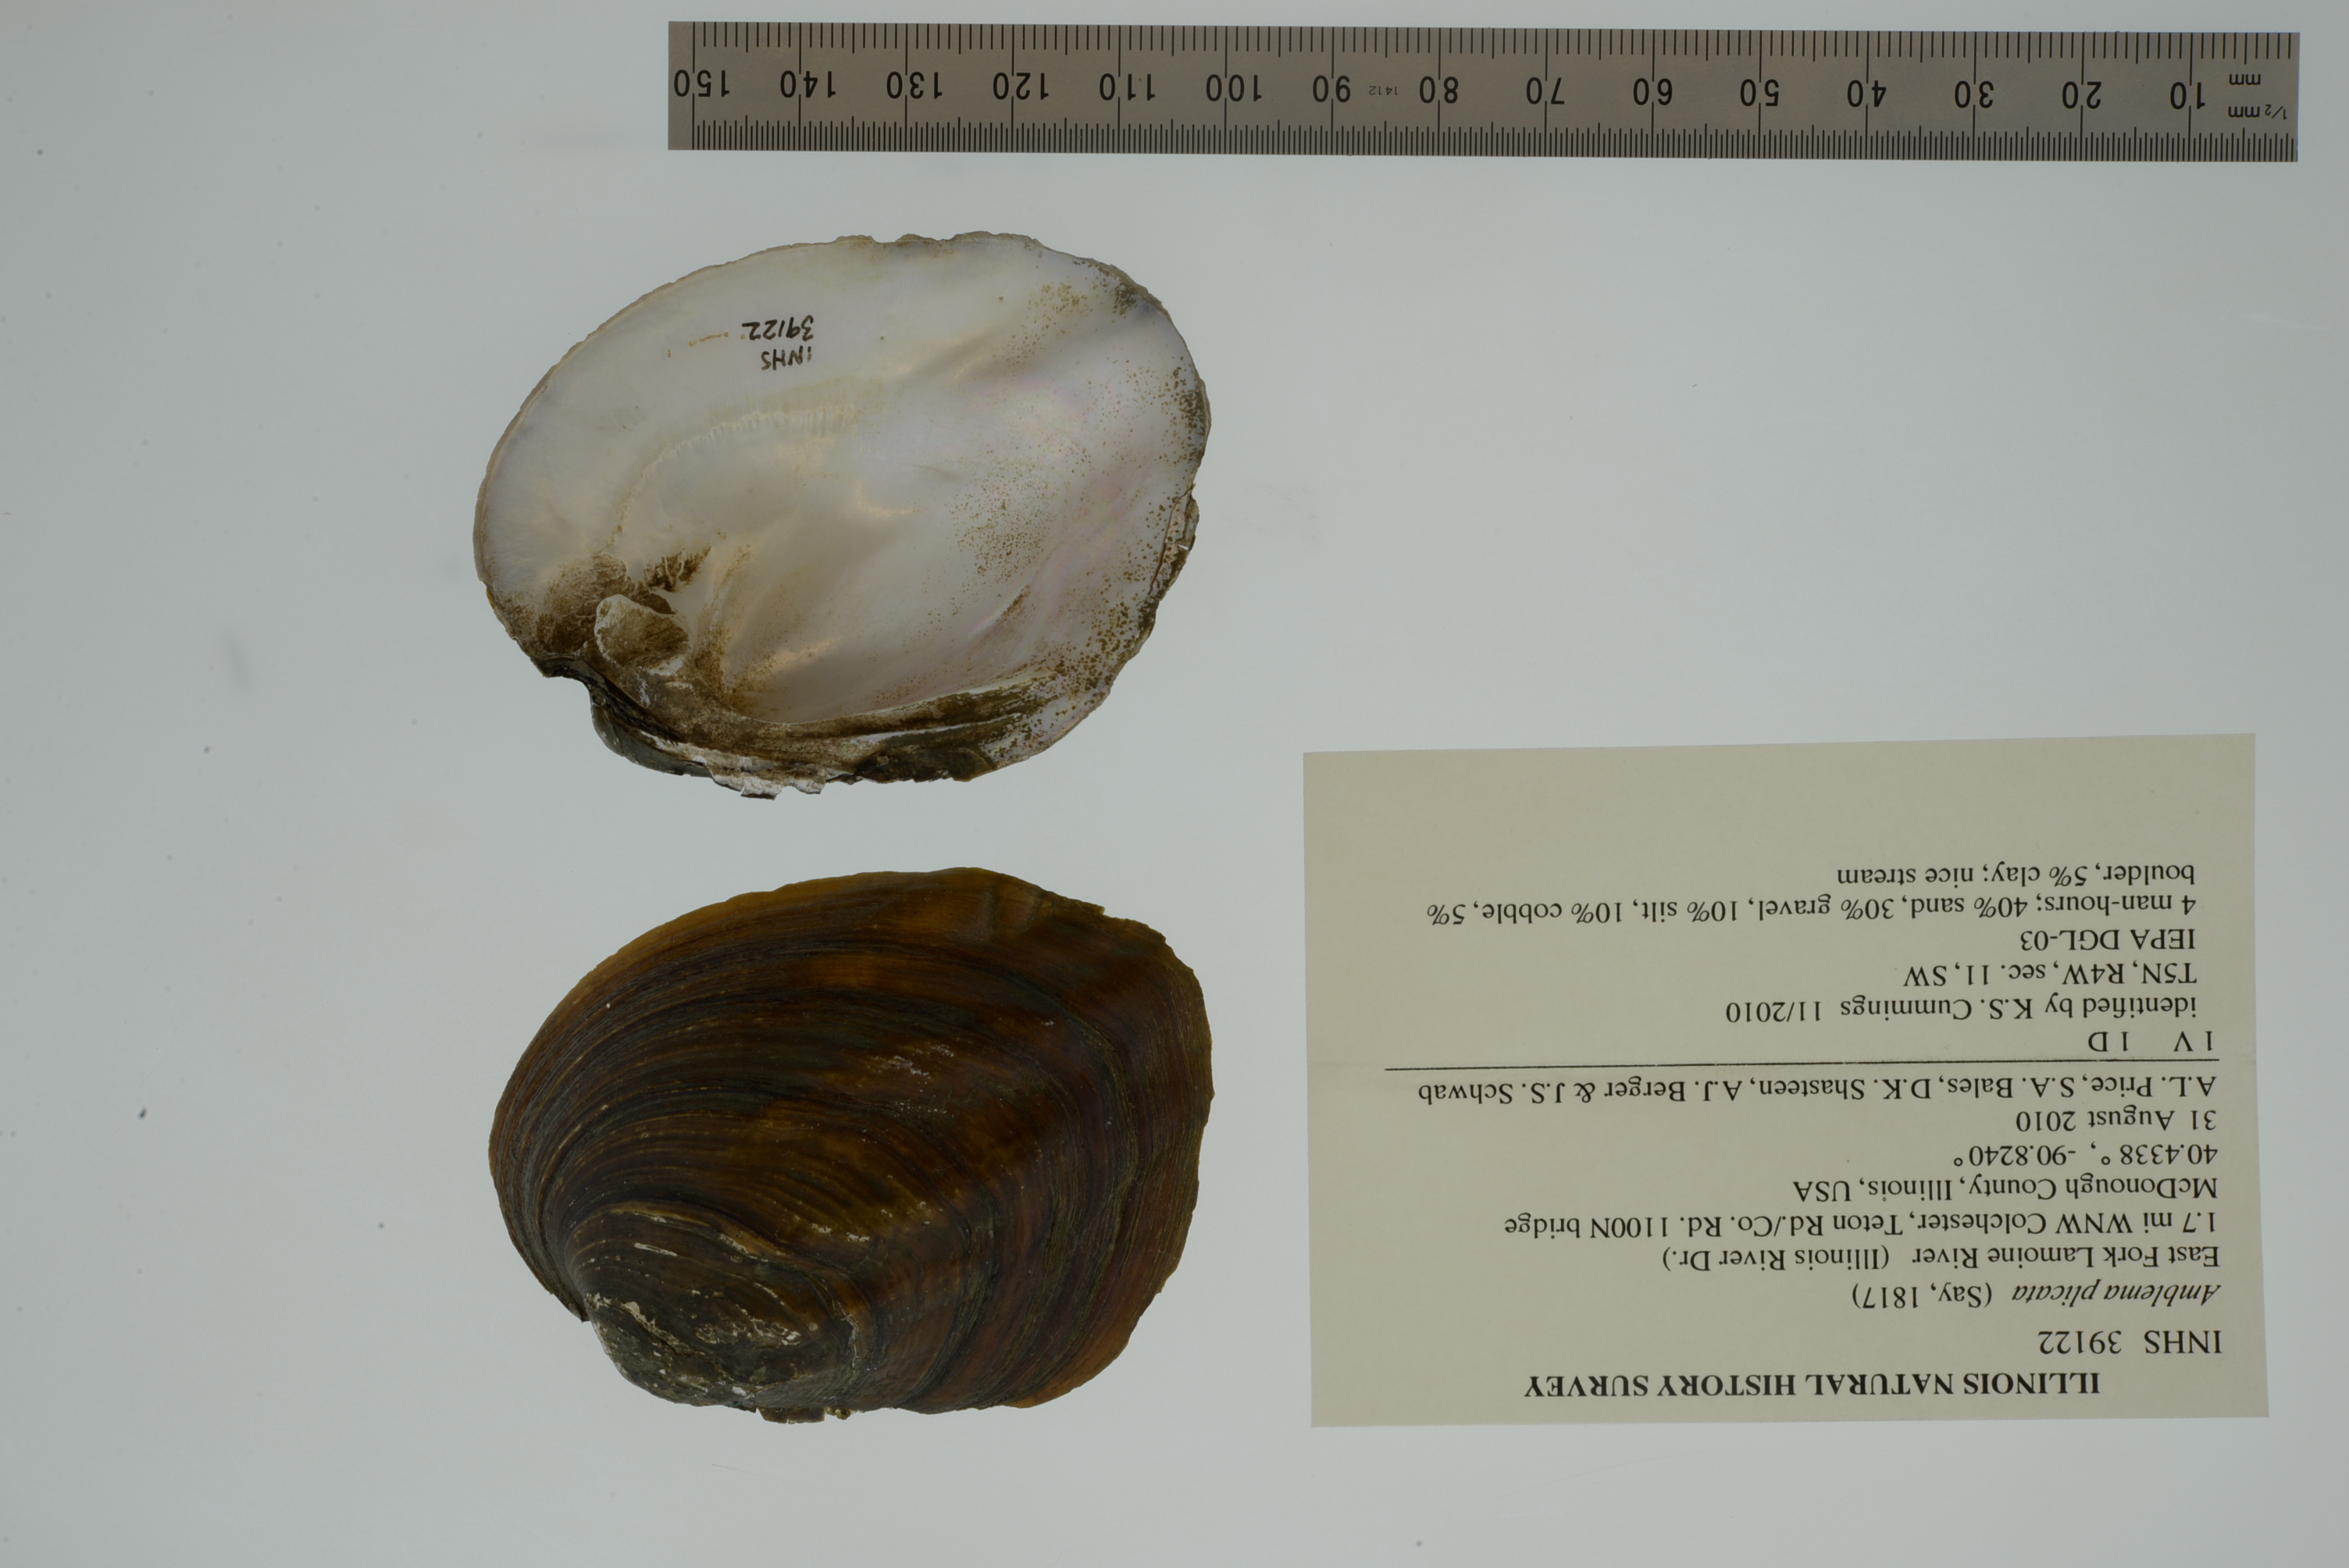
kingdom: Animalia
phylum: Mollusca
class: Bivalvia
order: Unionida
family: Unionidae
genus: Amblema
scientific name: Amblema plicata
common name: Threeridge
